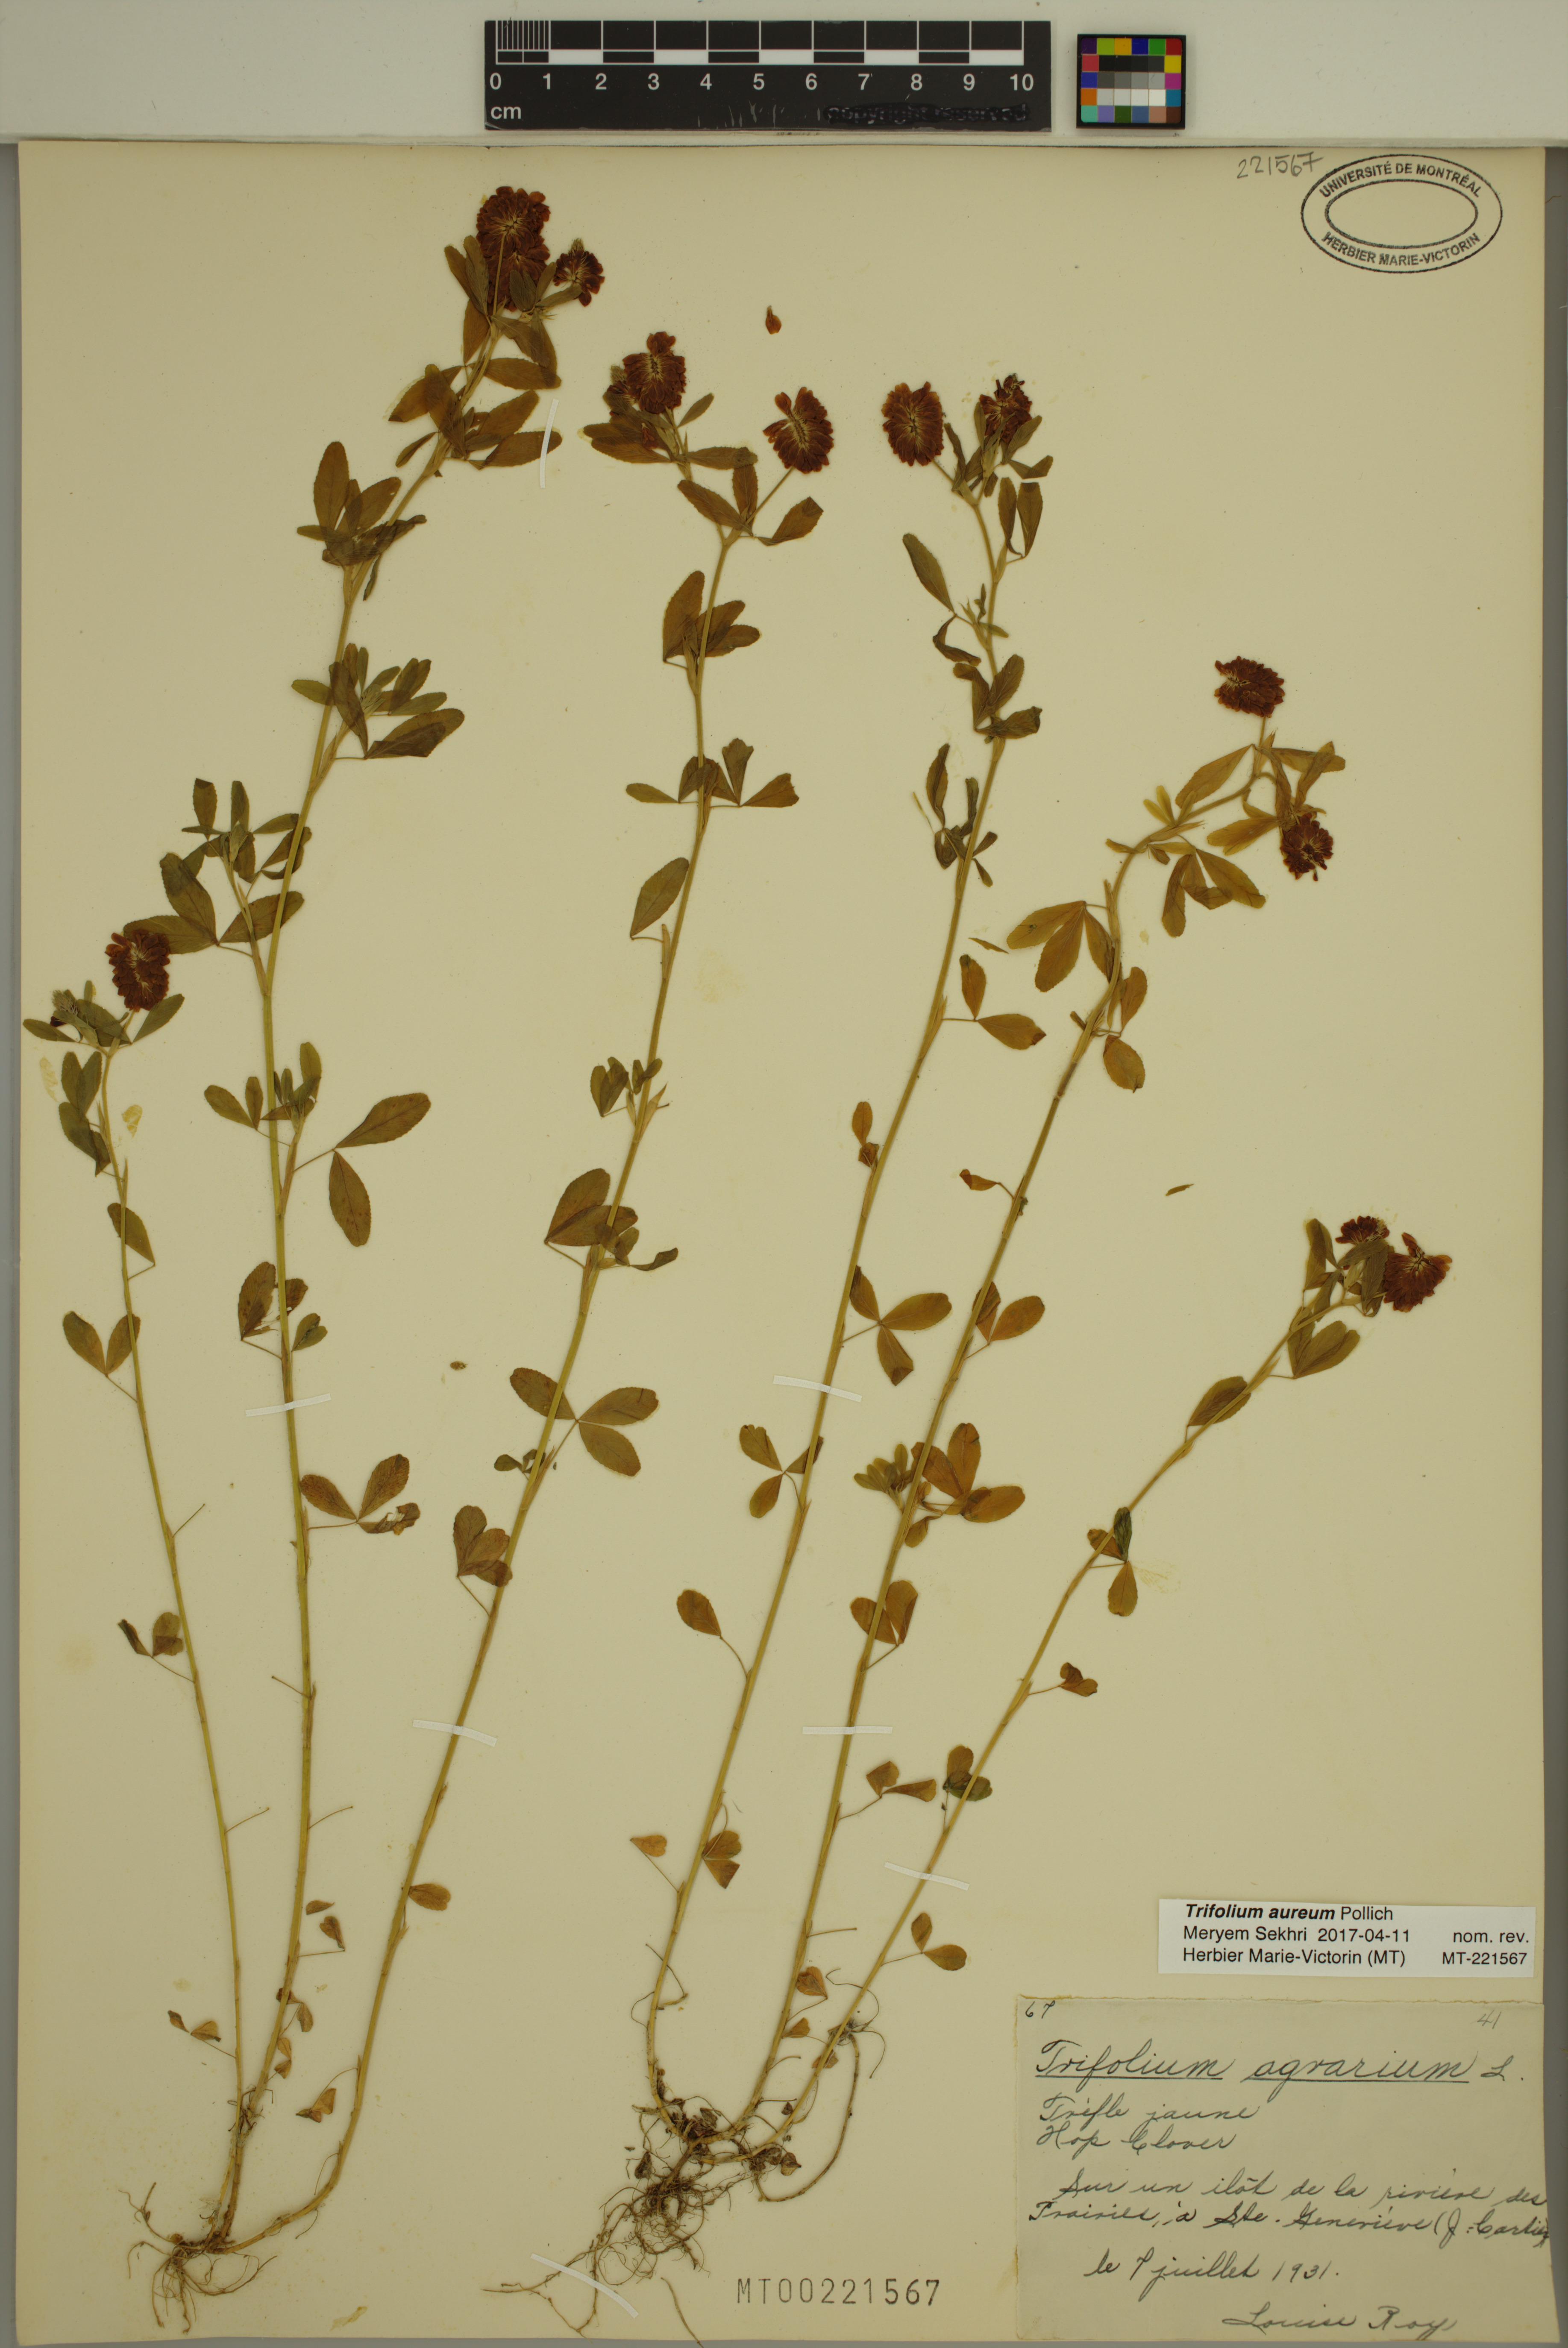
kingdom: Plantae
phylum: Tracheophyta
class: Magnoliopsida
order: Fabales
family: Fabaceae
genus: Trifolium
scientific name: Trifolium aureum
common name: Golden clover
